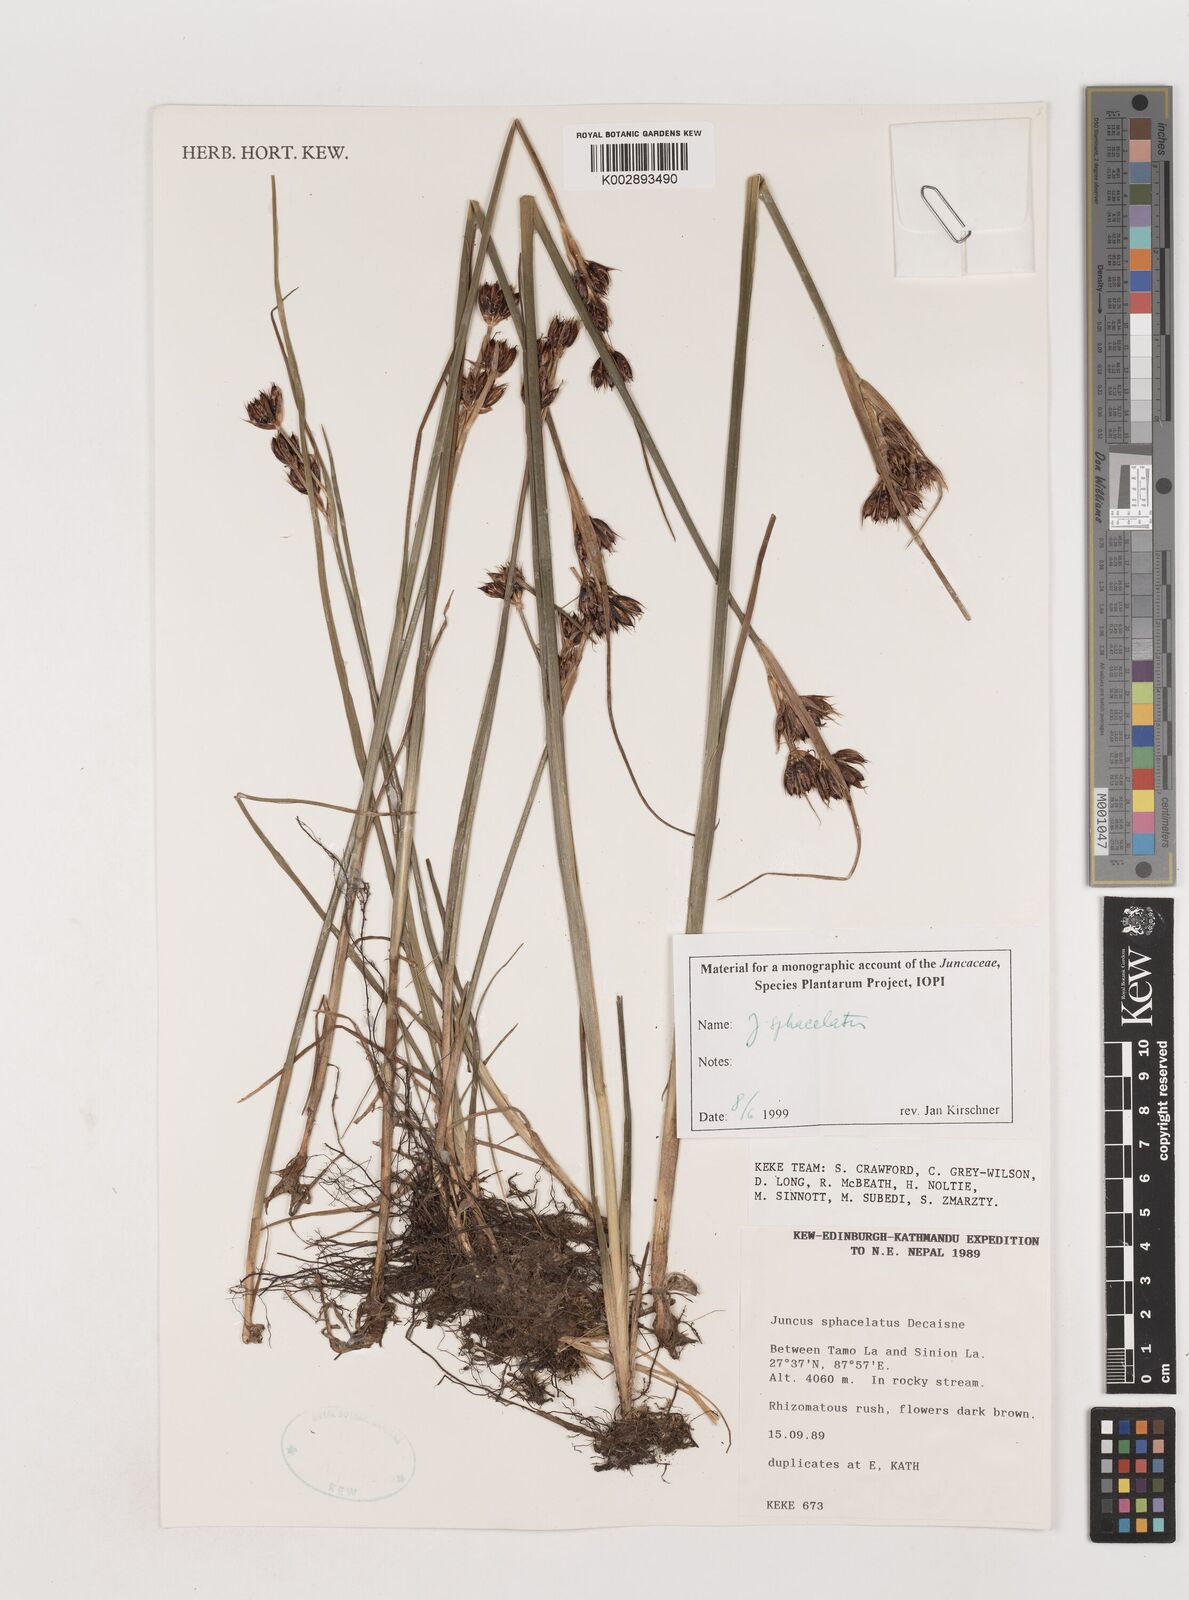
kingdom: Plantae
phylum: Tracheophyta
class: Liliopsida
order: Poales
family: Juncaceae
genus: Juncus
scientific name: Juncus sphacelatus
